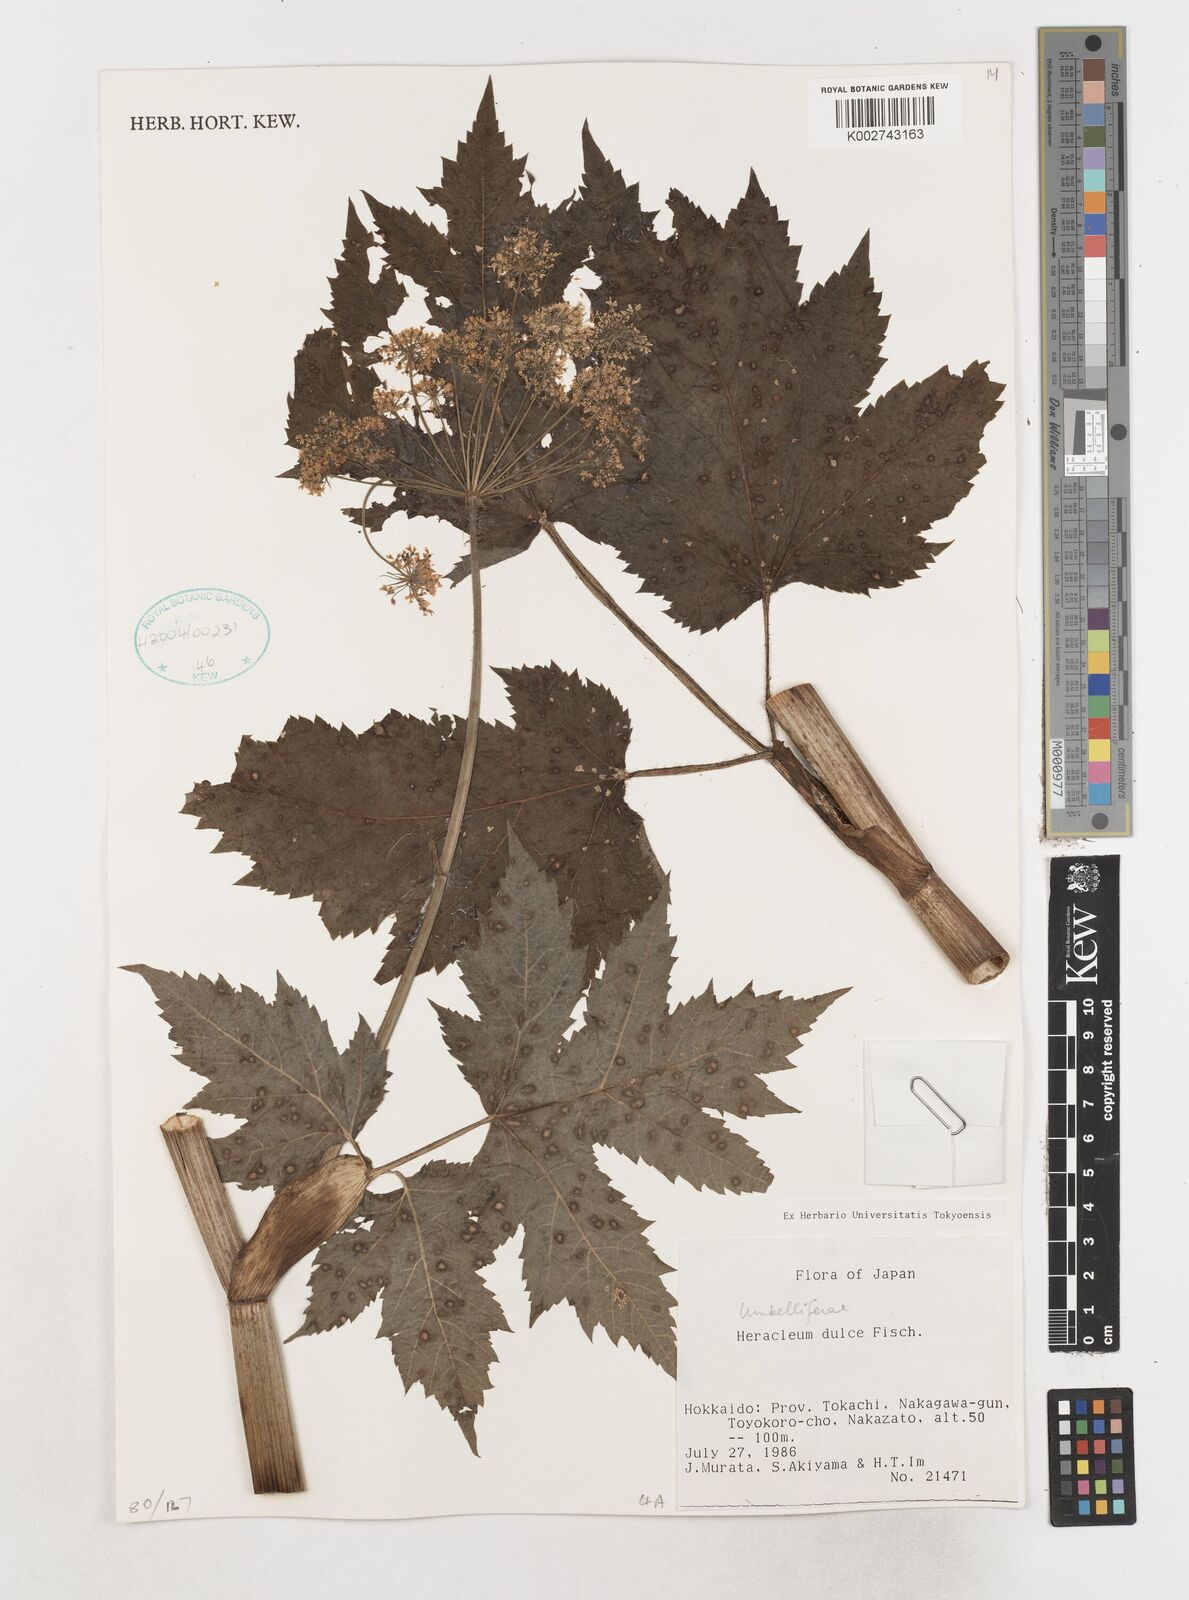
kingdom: Plantae
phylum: Tracheophyta
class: Magnoliopsida
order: Apiales
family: Apiaceae
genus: Heracleum
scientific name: Heracleum
